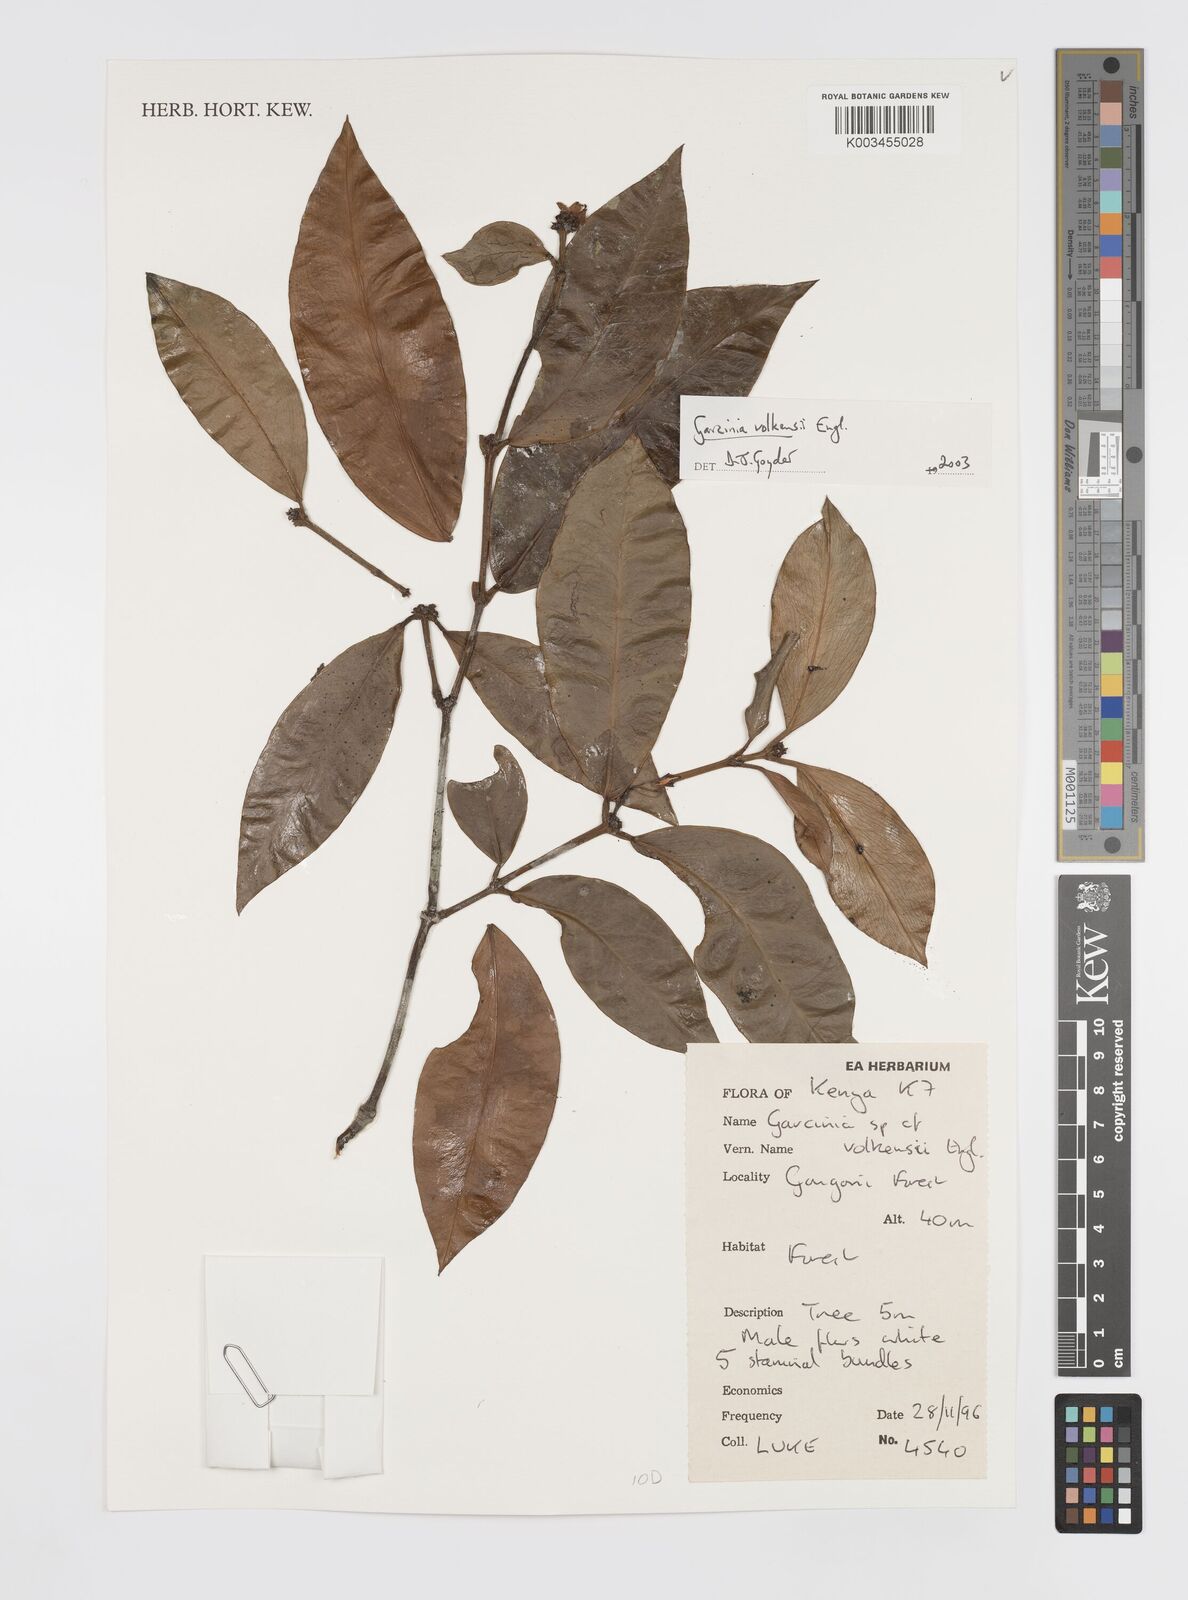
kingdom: Plantae
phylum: Tracheophyta
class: Magnoliopsida
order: Malpighiales
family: Clusiaceae
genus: Garcinia
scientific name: Garcinia volkensii
